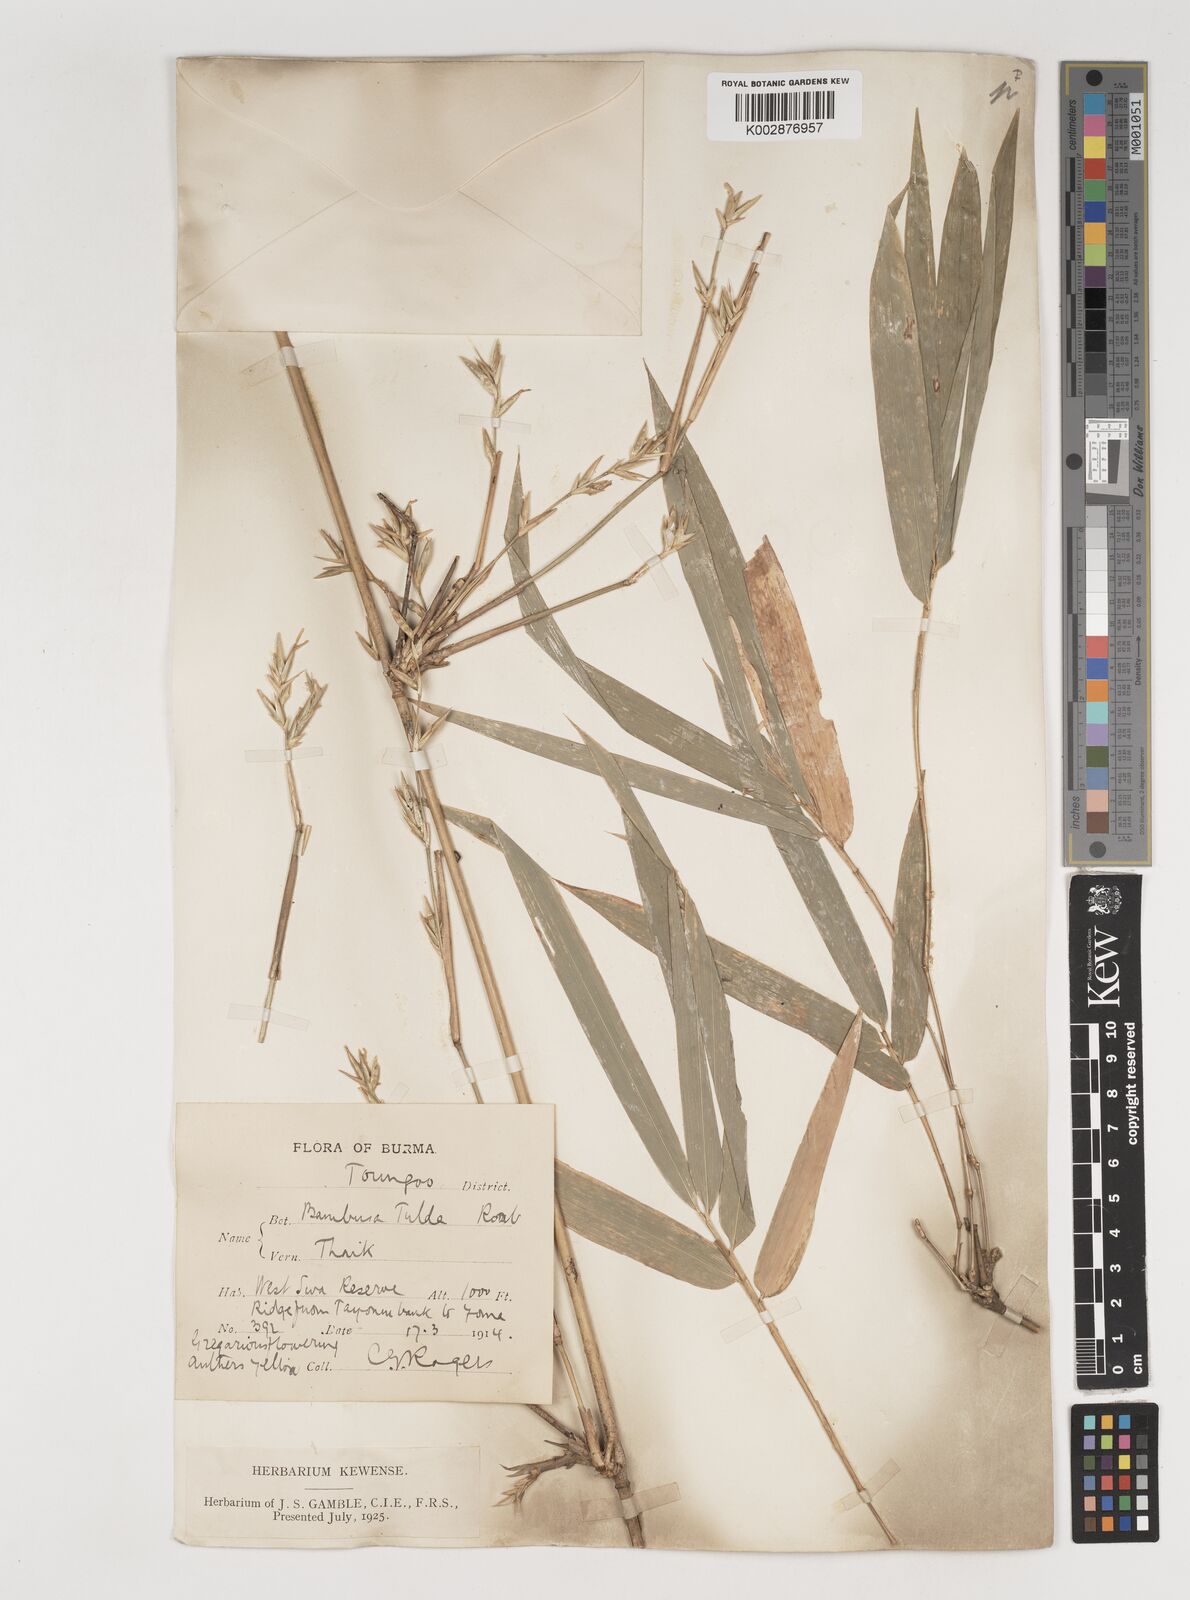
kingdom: Plantae
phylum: Tracheophyta
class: Liliopsida
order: Poales
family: Poaceae
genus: Bambusa
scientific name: Bambusa tulda
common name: Bengal bamboo
